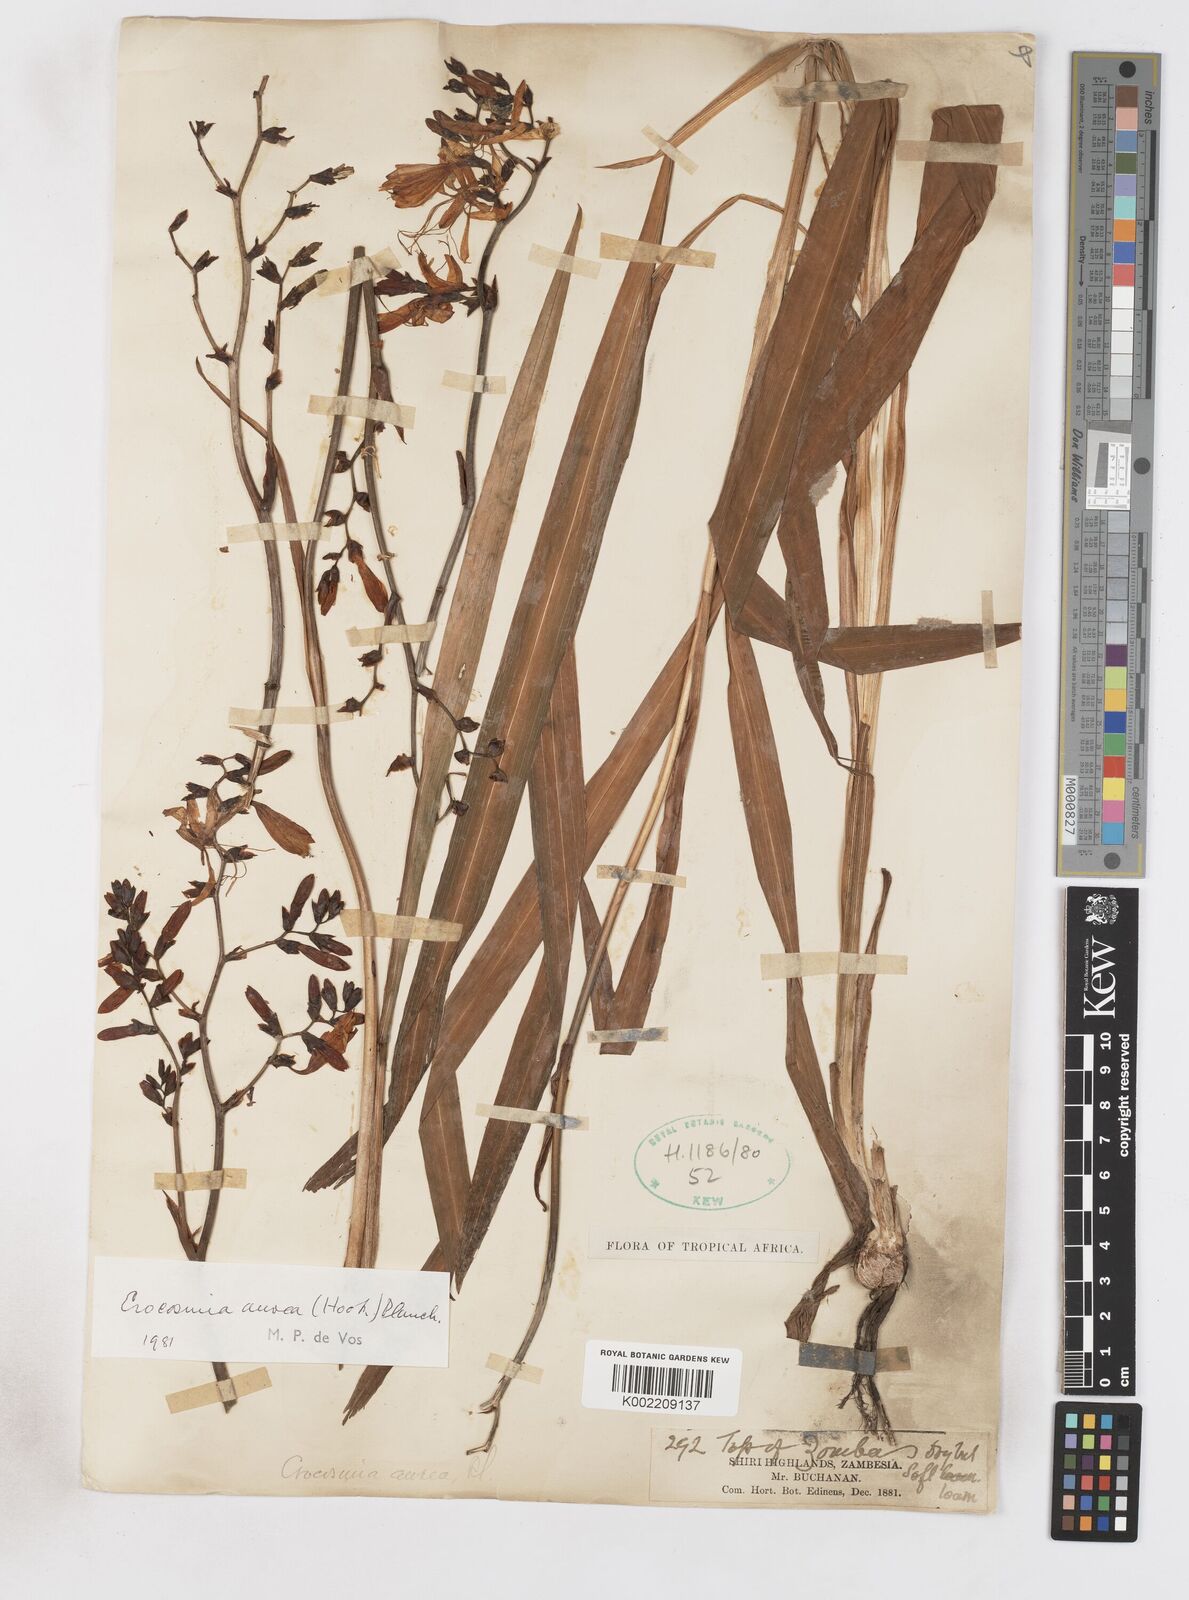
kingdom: Plantae
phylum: Tracheophyta
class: Liliopsida
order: Asparagales
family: Iridaceae
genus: Crocosmia
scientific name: Crocosmia aurea
